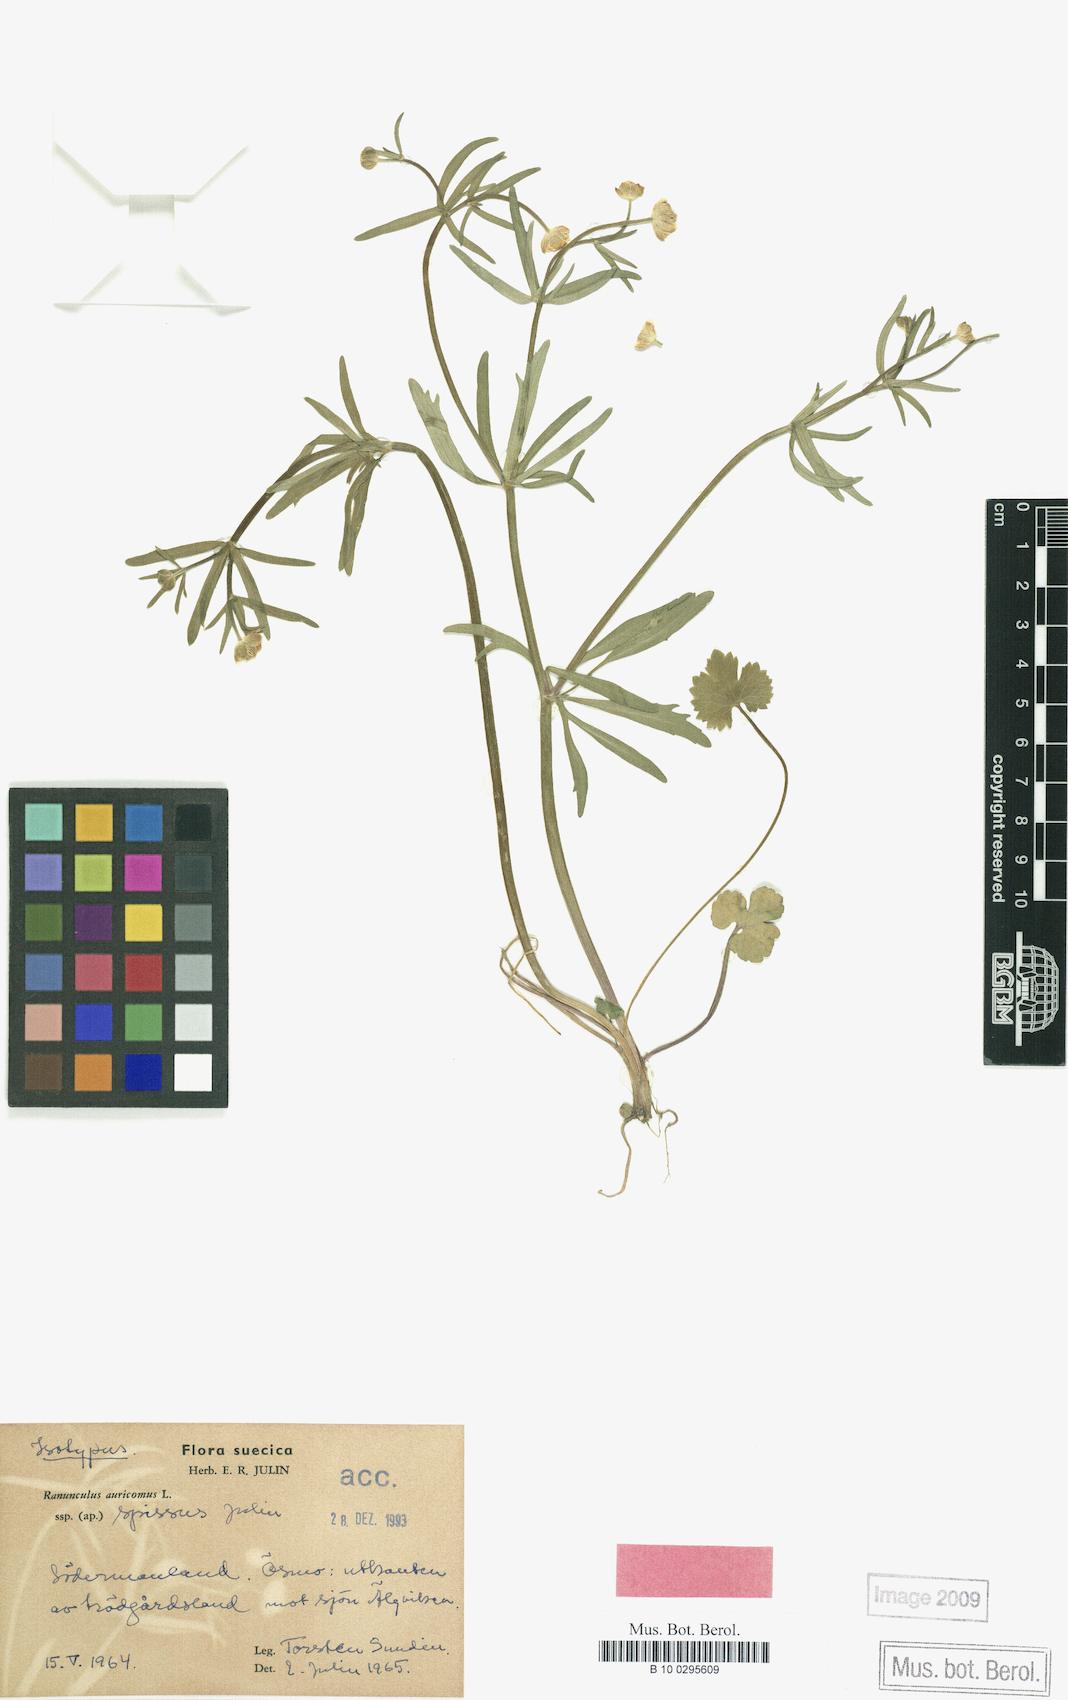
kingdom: Plantae
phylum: Tracheophyta
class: Magnoliopsida
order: Ranunculales
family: Ranunculaceae
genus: Ranunculus
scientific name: Ranunculus spissus
